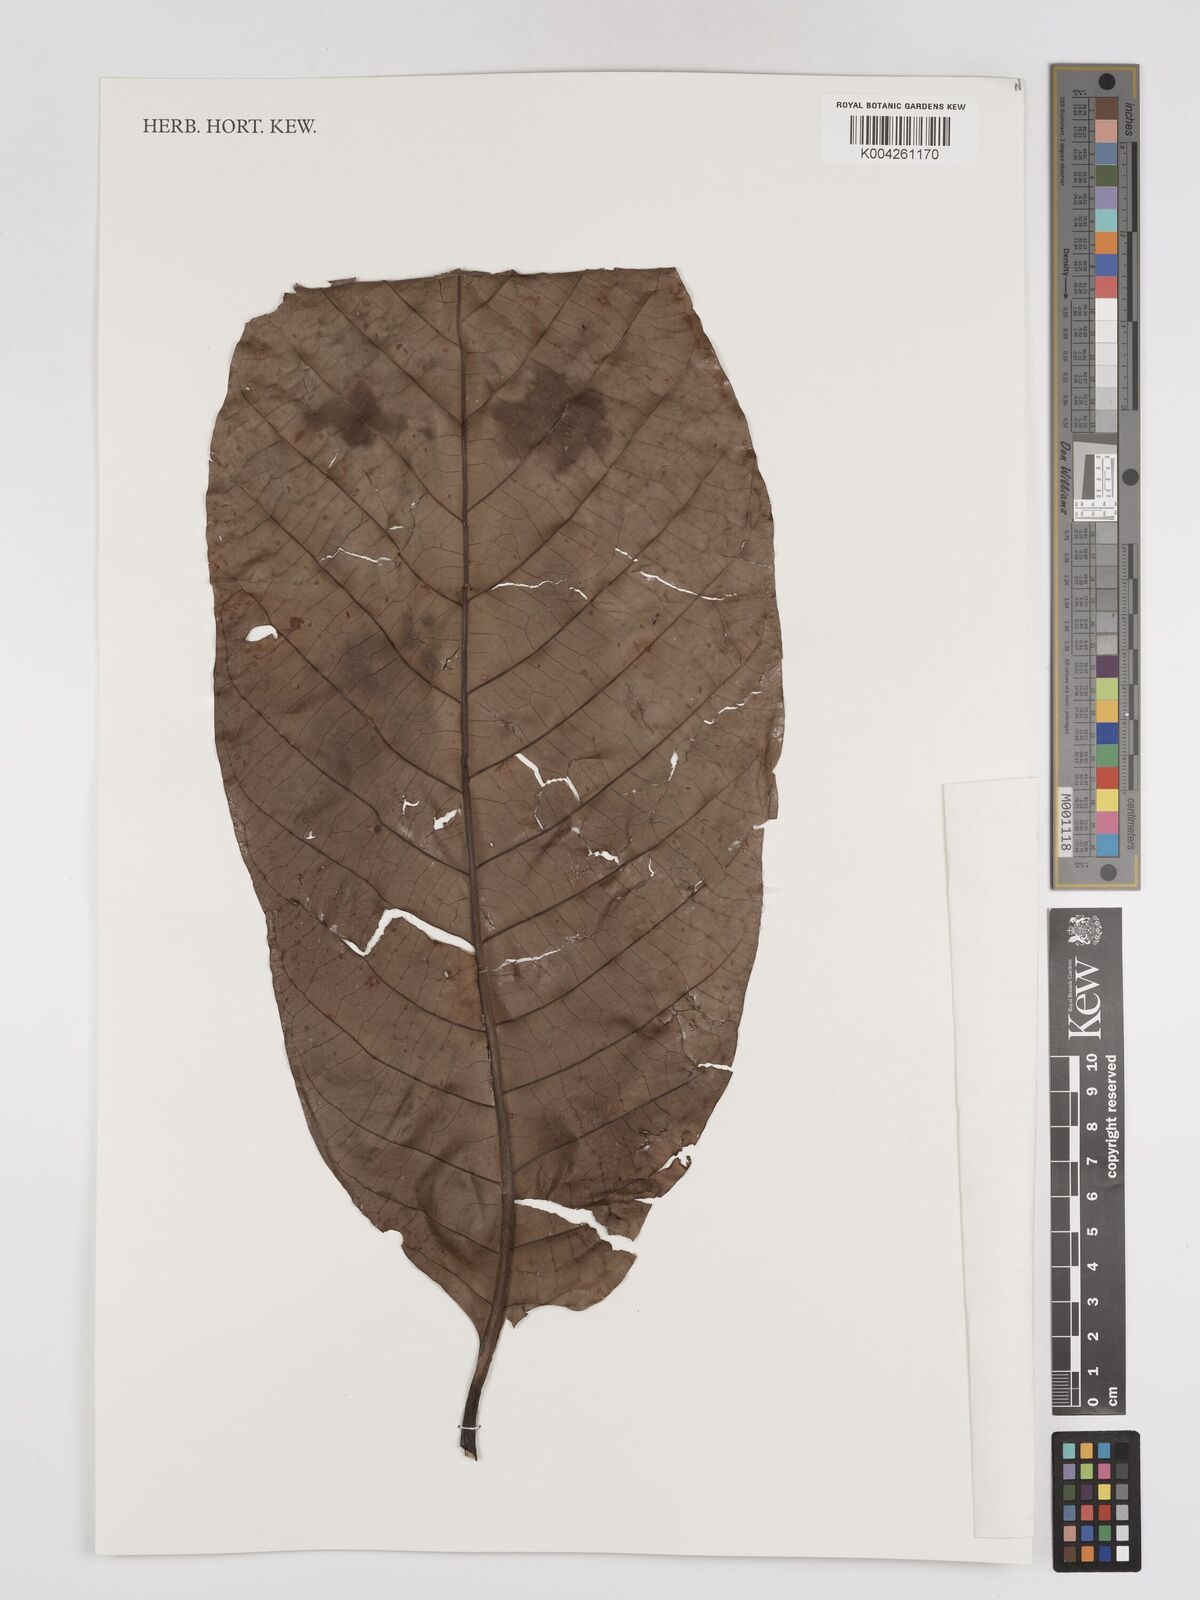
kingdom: Plantae
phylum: Tracheophyta
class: Magnoliopsida
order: Gentianales
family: Rubiaceae
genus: Neonauclea
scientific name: Neonauclea
